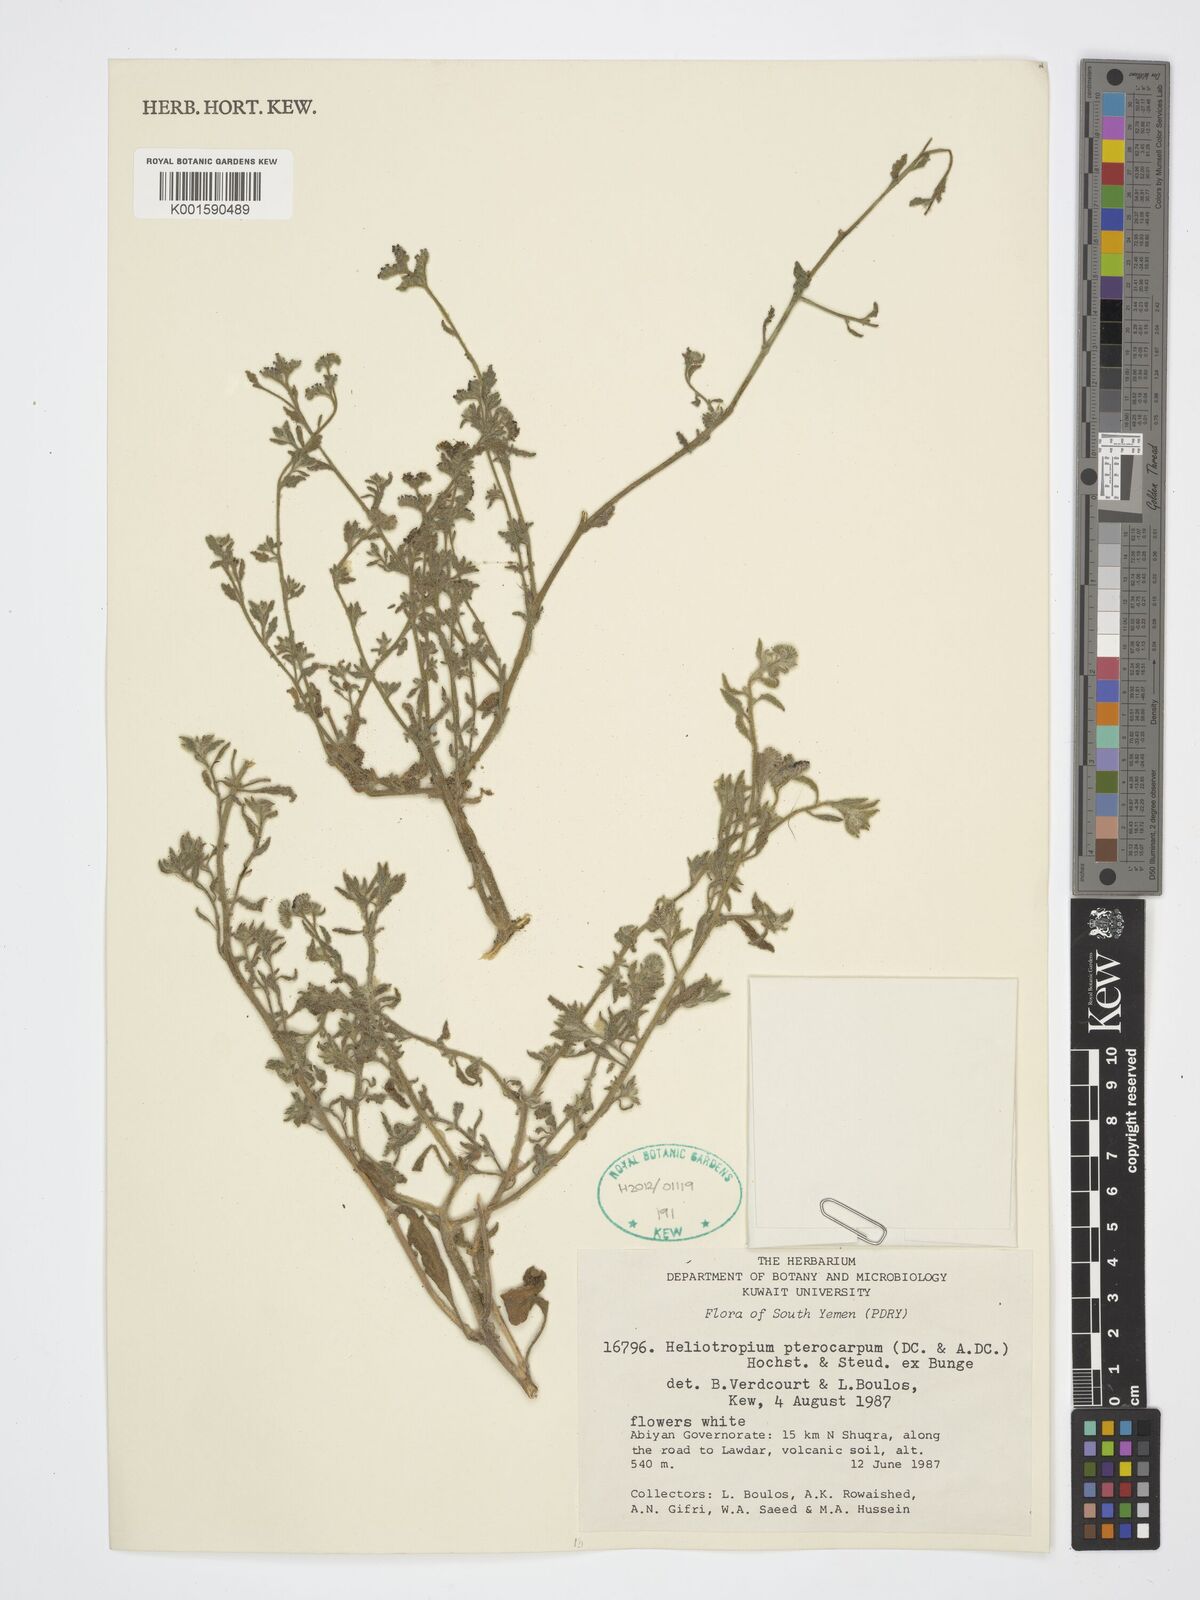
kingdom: Plantae
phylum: Tracheophyta
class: Magnoliopsida
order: Boraginales
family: Heliotropiaceae
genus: Heliotropium
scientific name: Heliotropium pterocarpum
